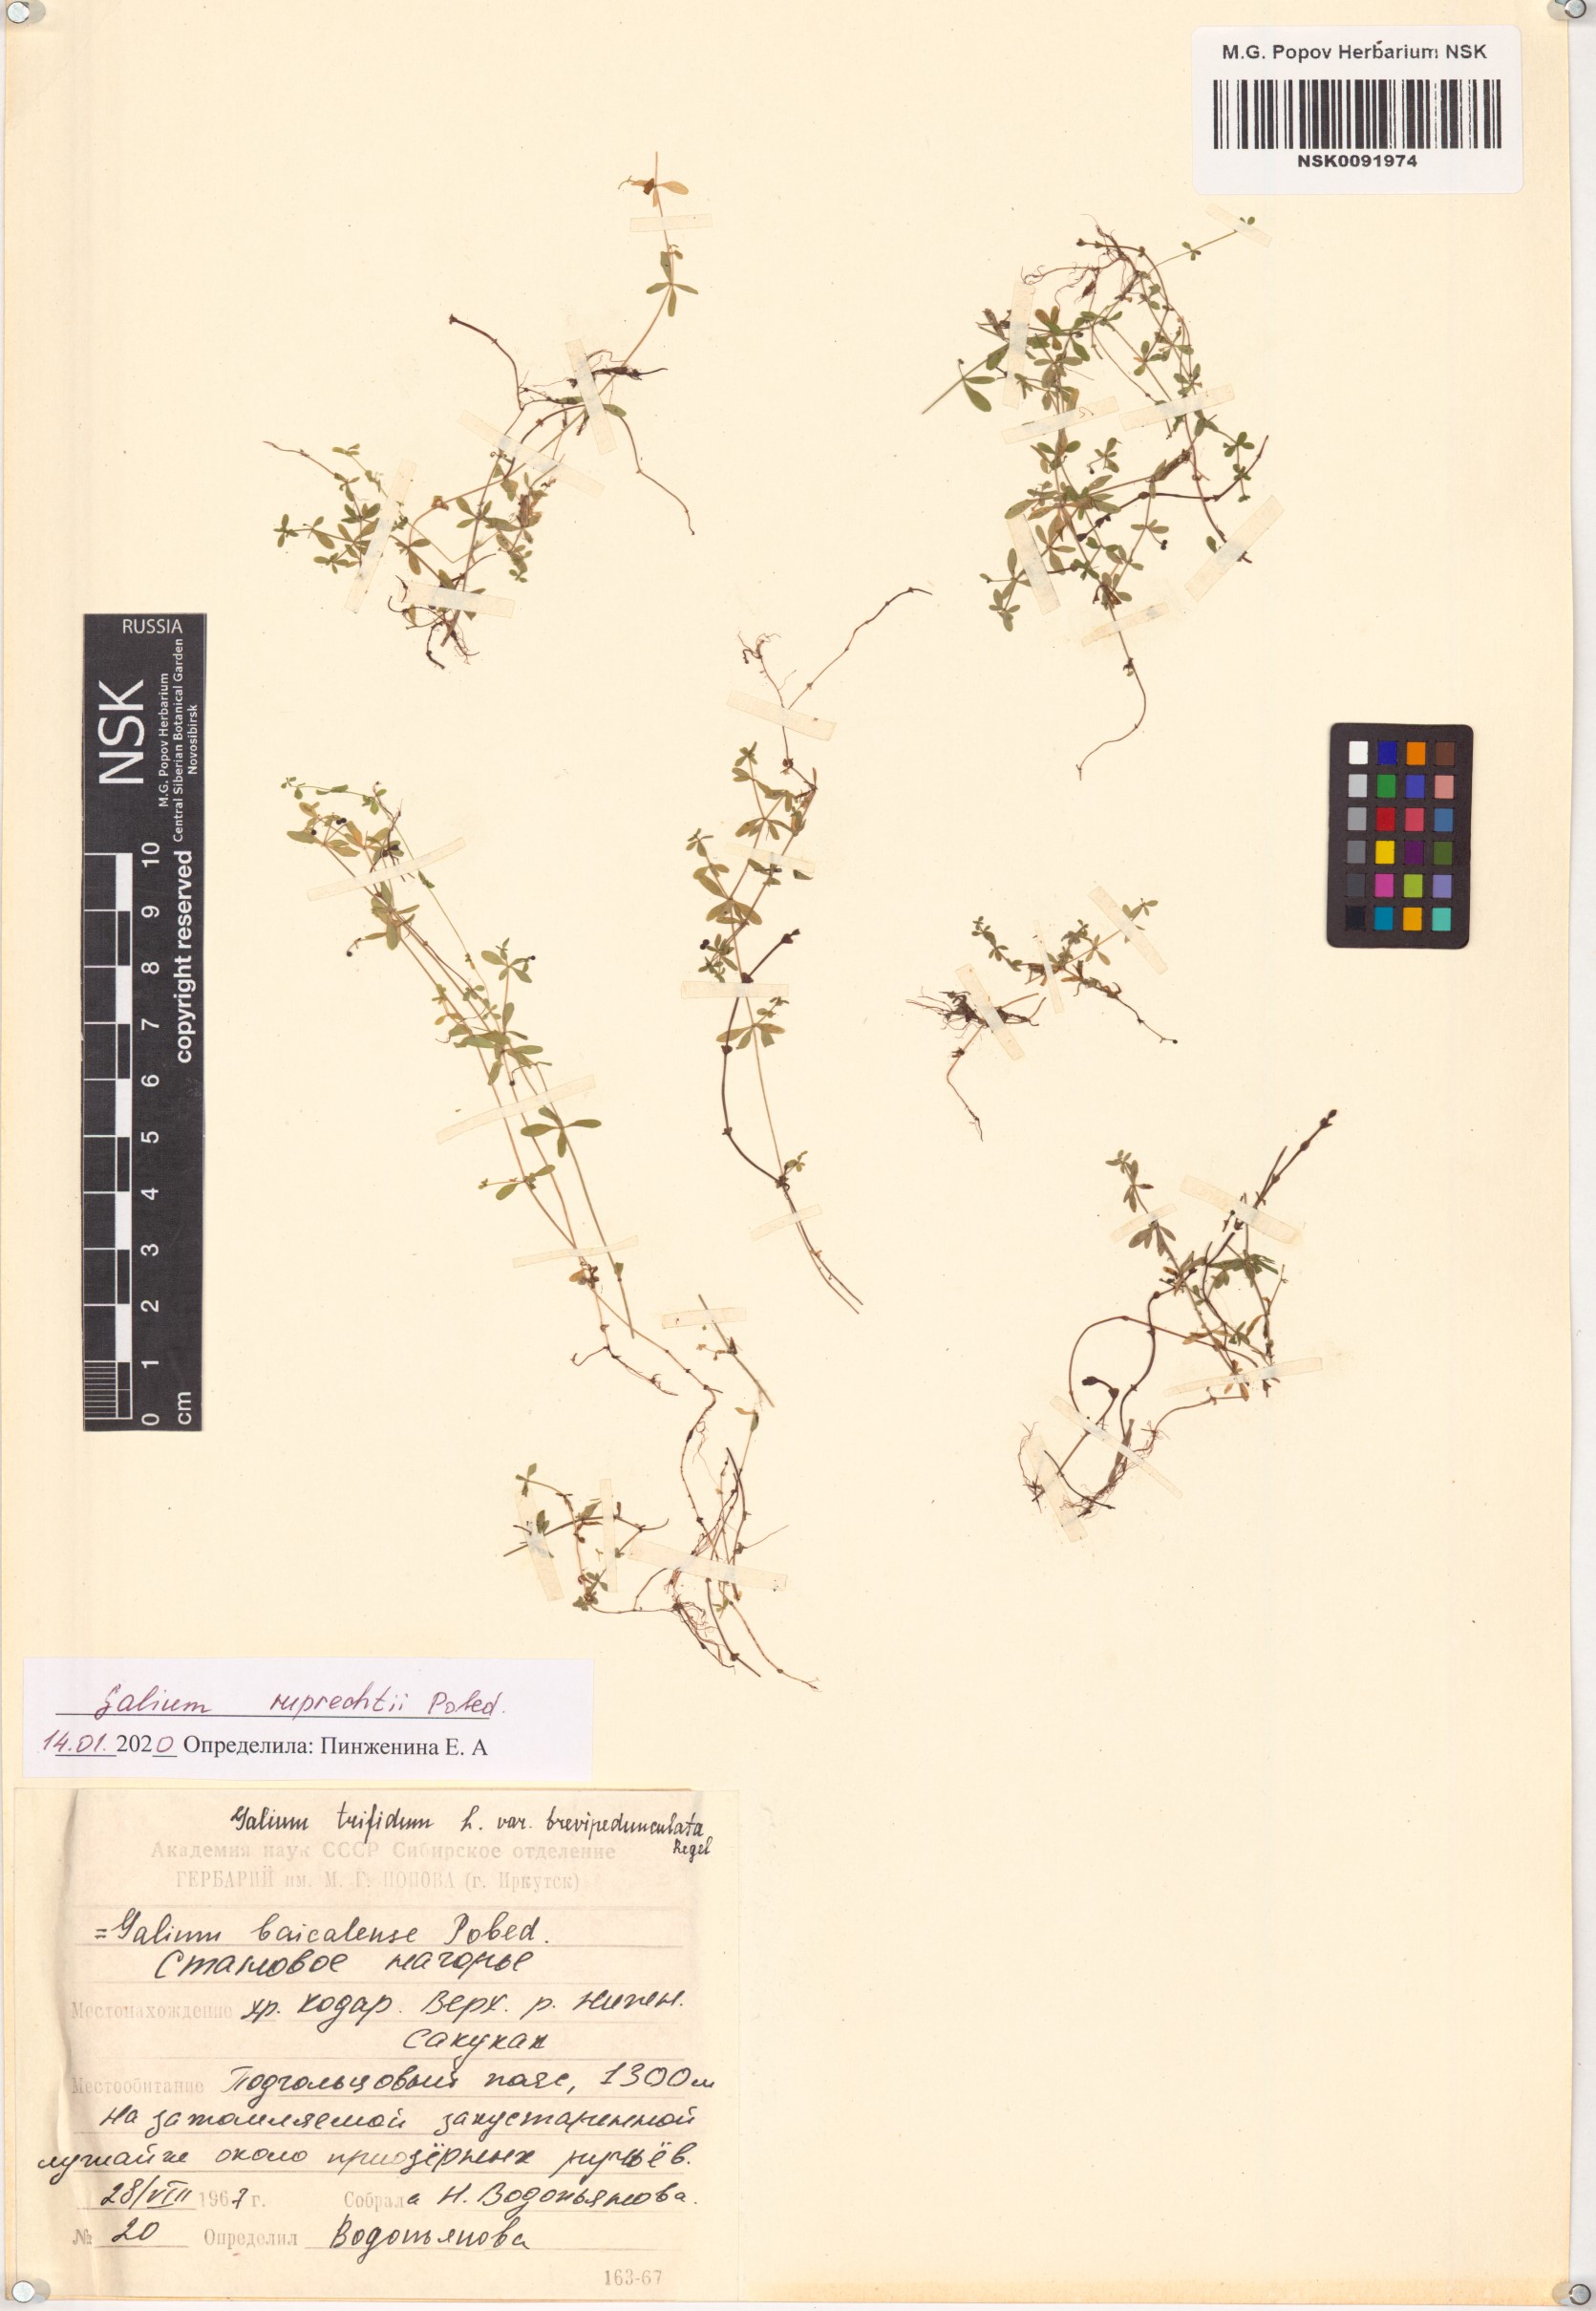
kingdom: Plantae
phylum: Tracheophyta
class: Magnoliopsida
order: Gentianales
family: Rubiaceae
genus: Galium
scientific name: Galium trifidum
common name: Small bedstraw
